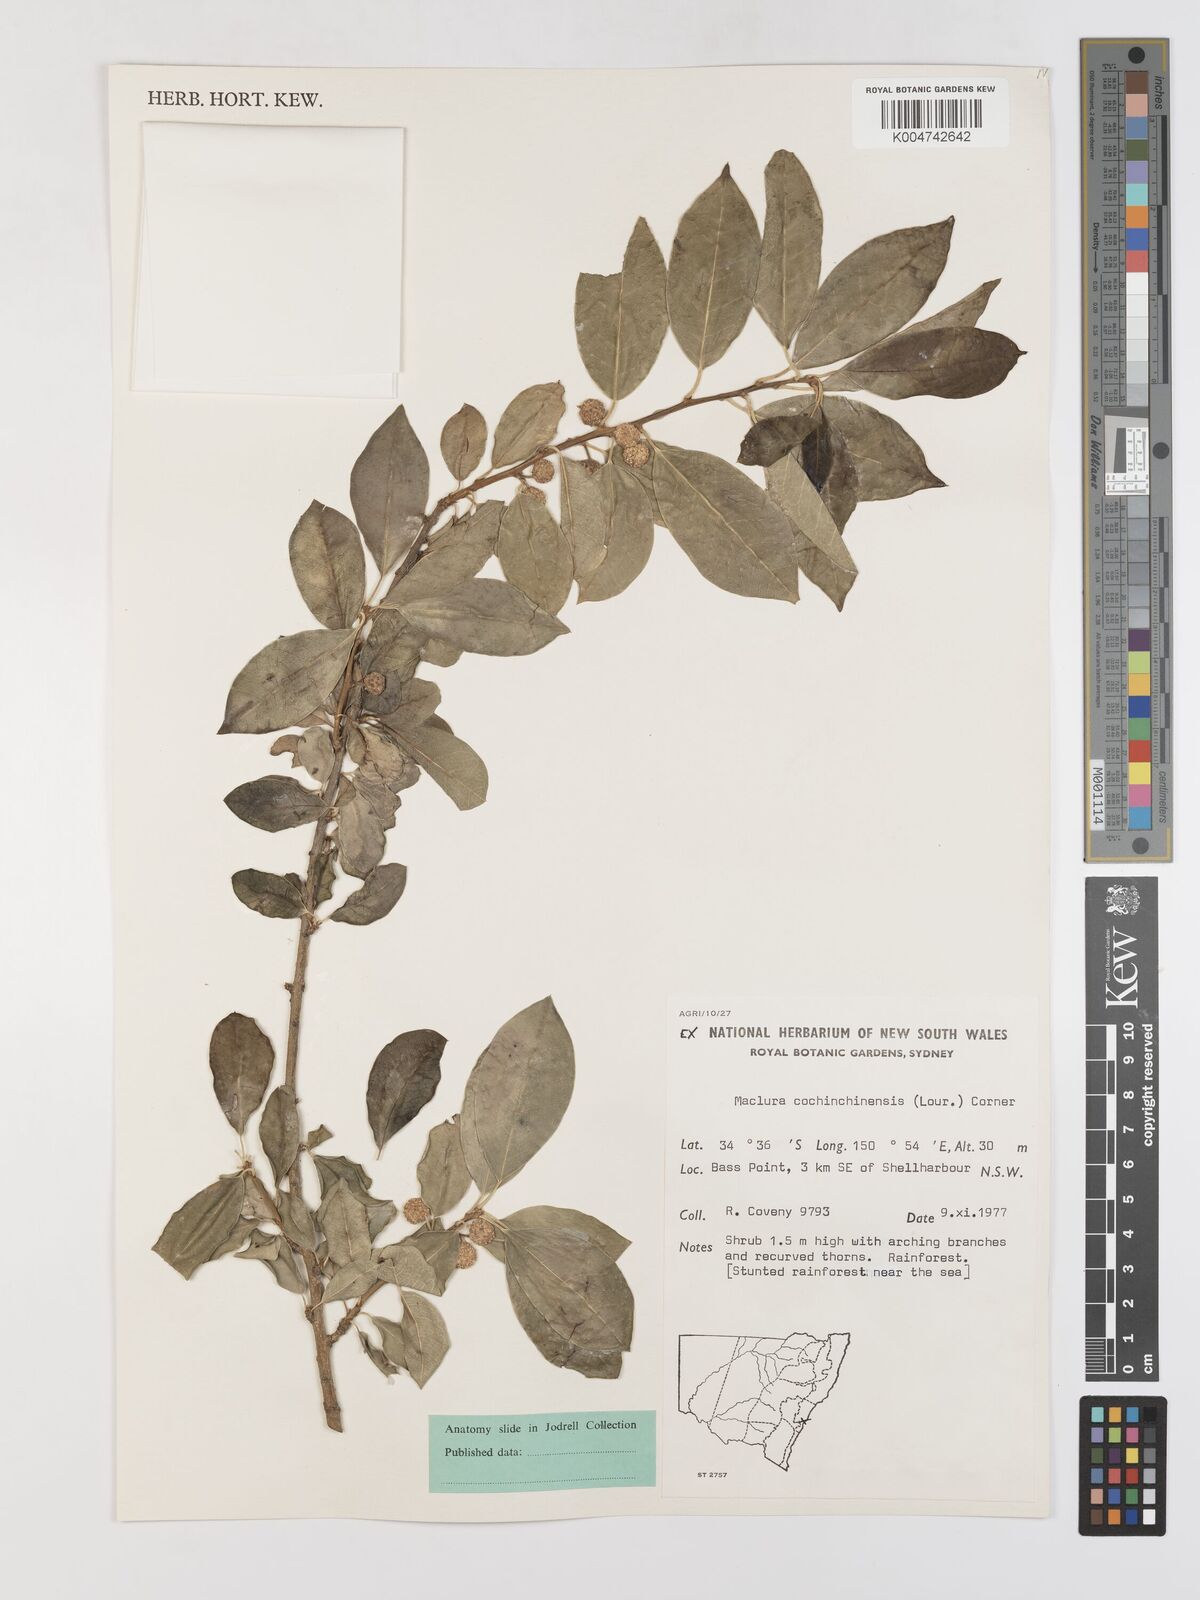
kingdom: Plantae
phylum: Tracheophyta
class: Magnoliopsida
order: Rosales
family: Moraceae
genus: Maclura
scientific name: Maclura cochinchinensis
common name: Cockspurthorn
